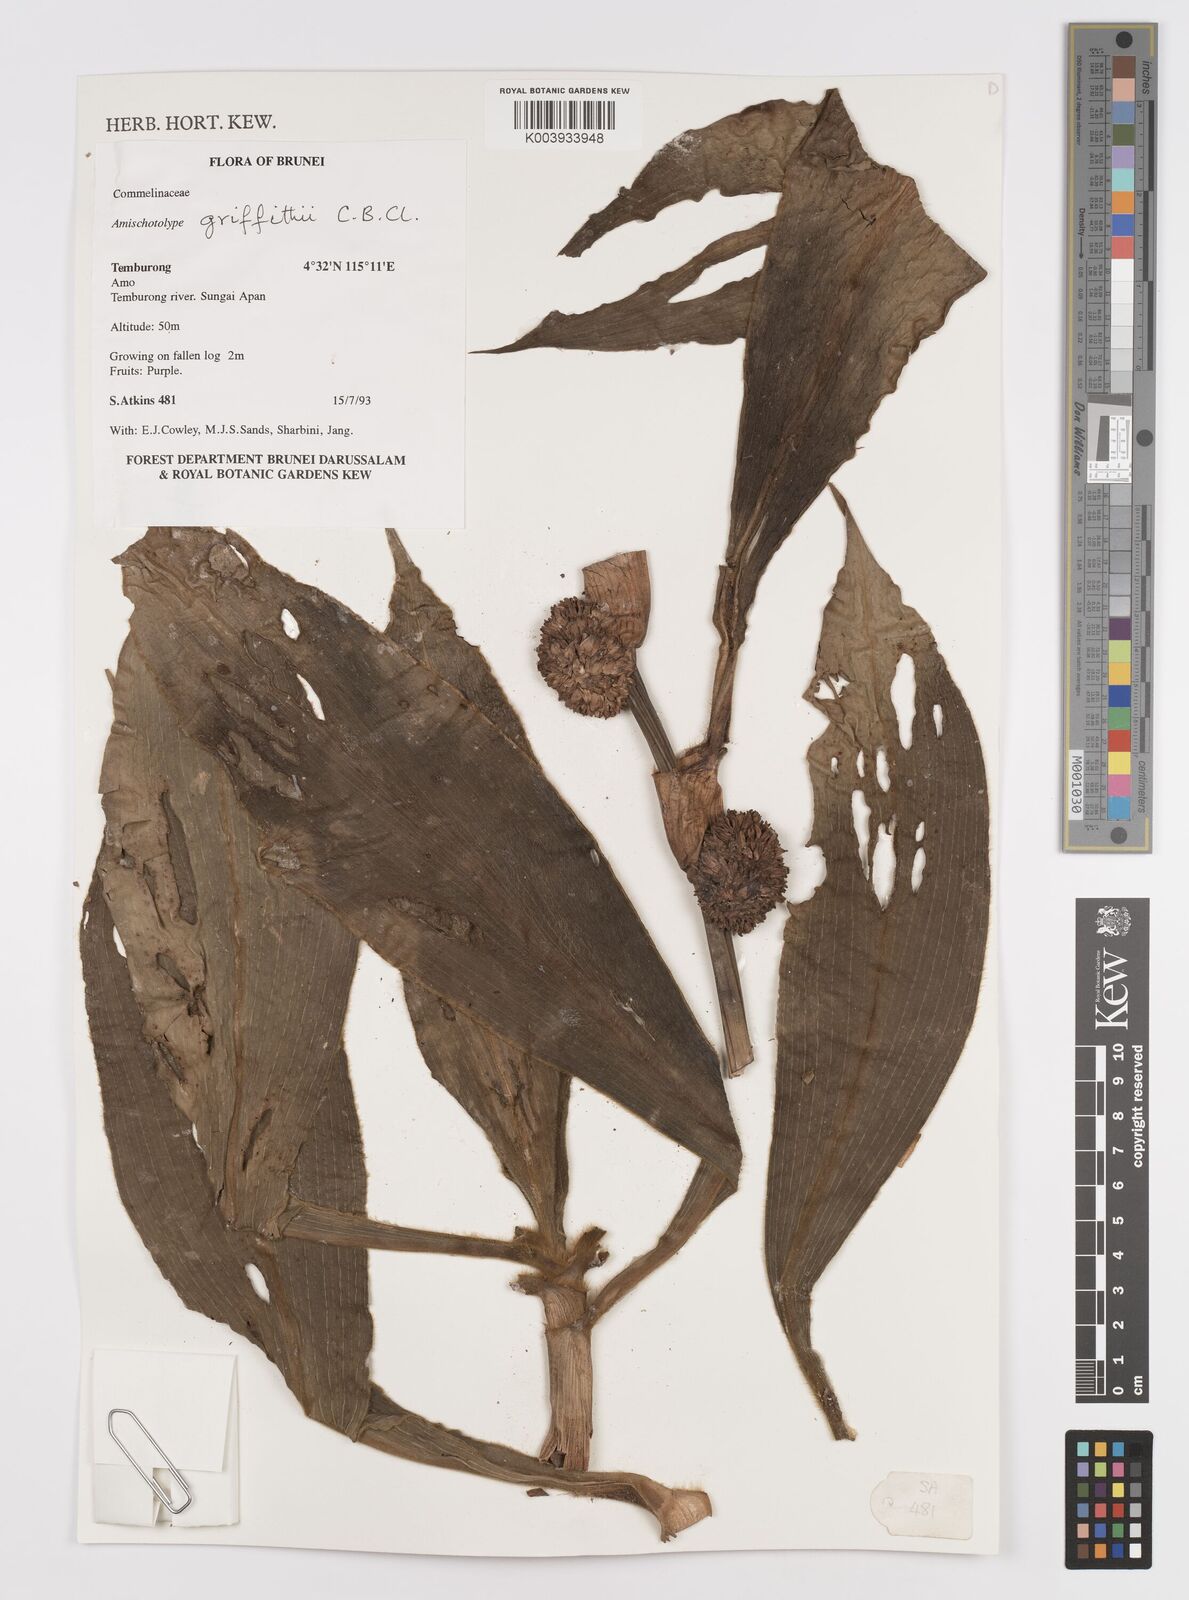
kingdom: Plantae
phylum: Tracheophyta
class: Liliopsida
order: Commelinales
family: Commelinaceae
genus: Amischotolype
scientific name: Amischotolype griffithii
